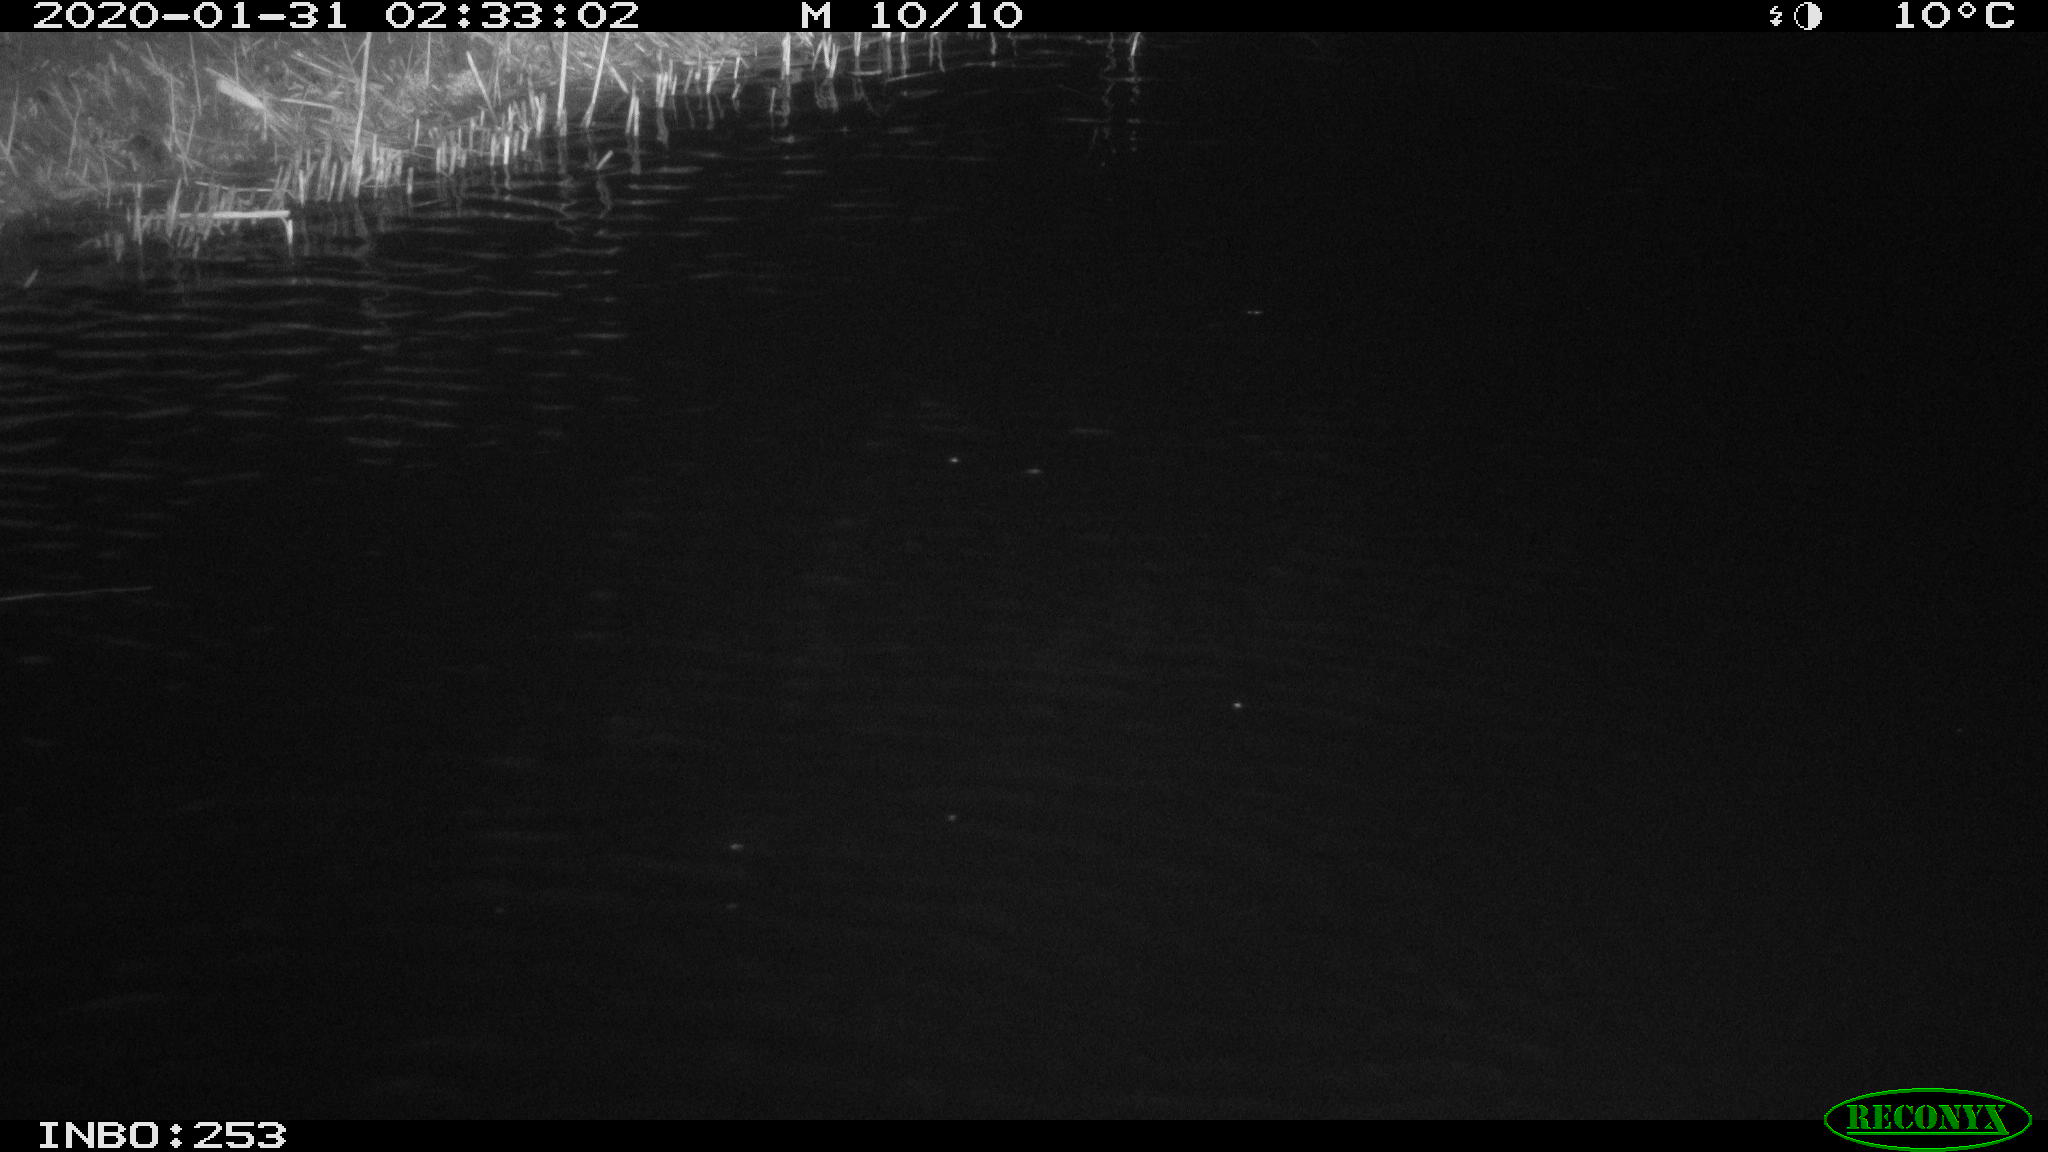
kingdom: Animalia
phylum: Chordata
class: Aves
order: Anseriformes
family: Anatidae
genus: Anas
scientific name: Anas platyrhynchos
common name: Mallard
